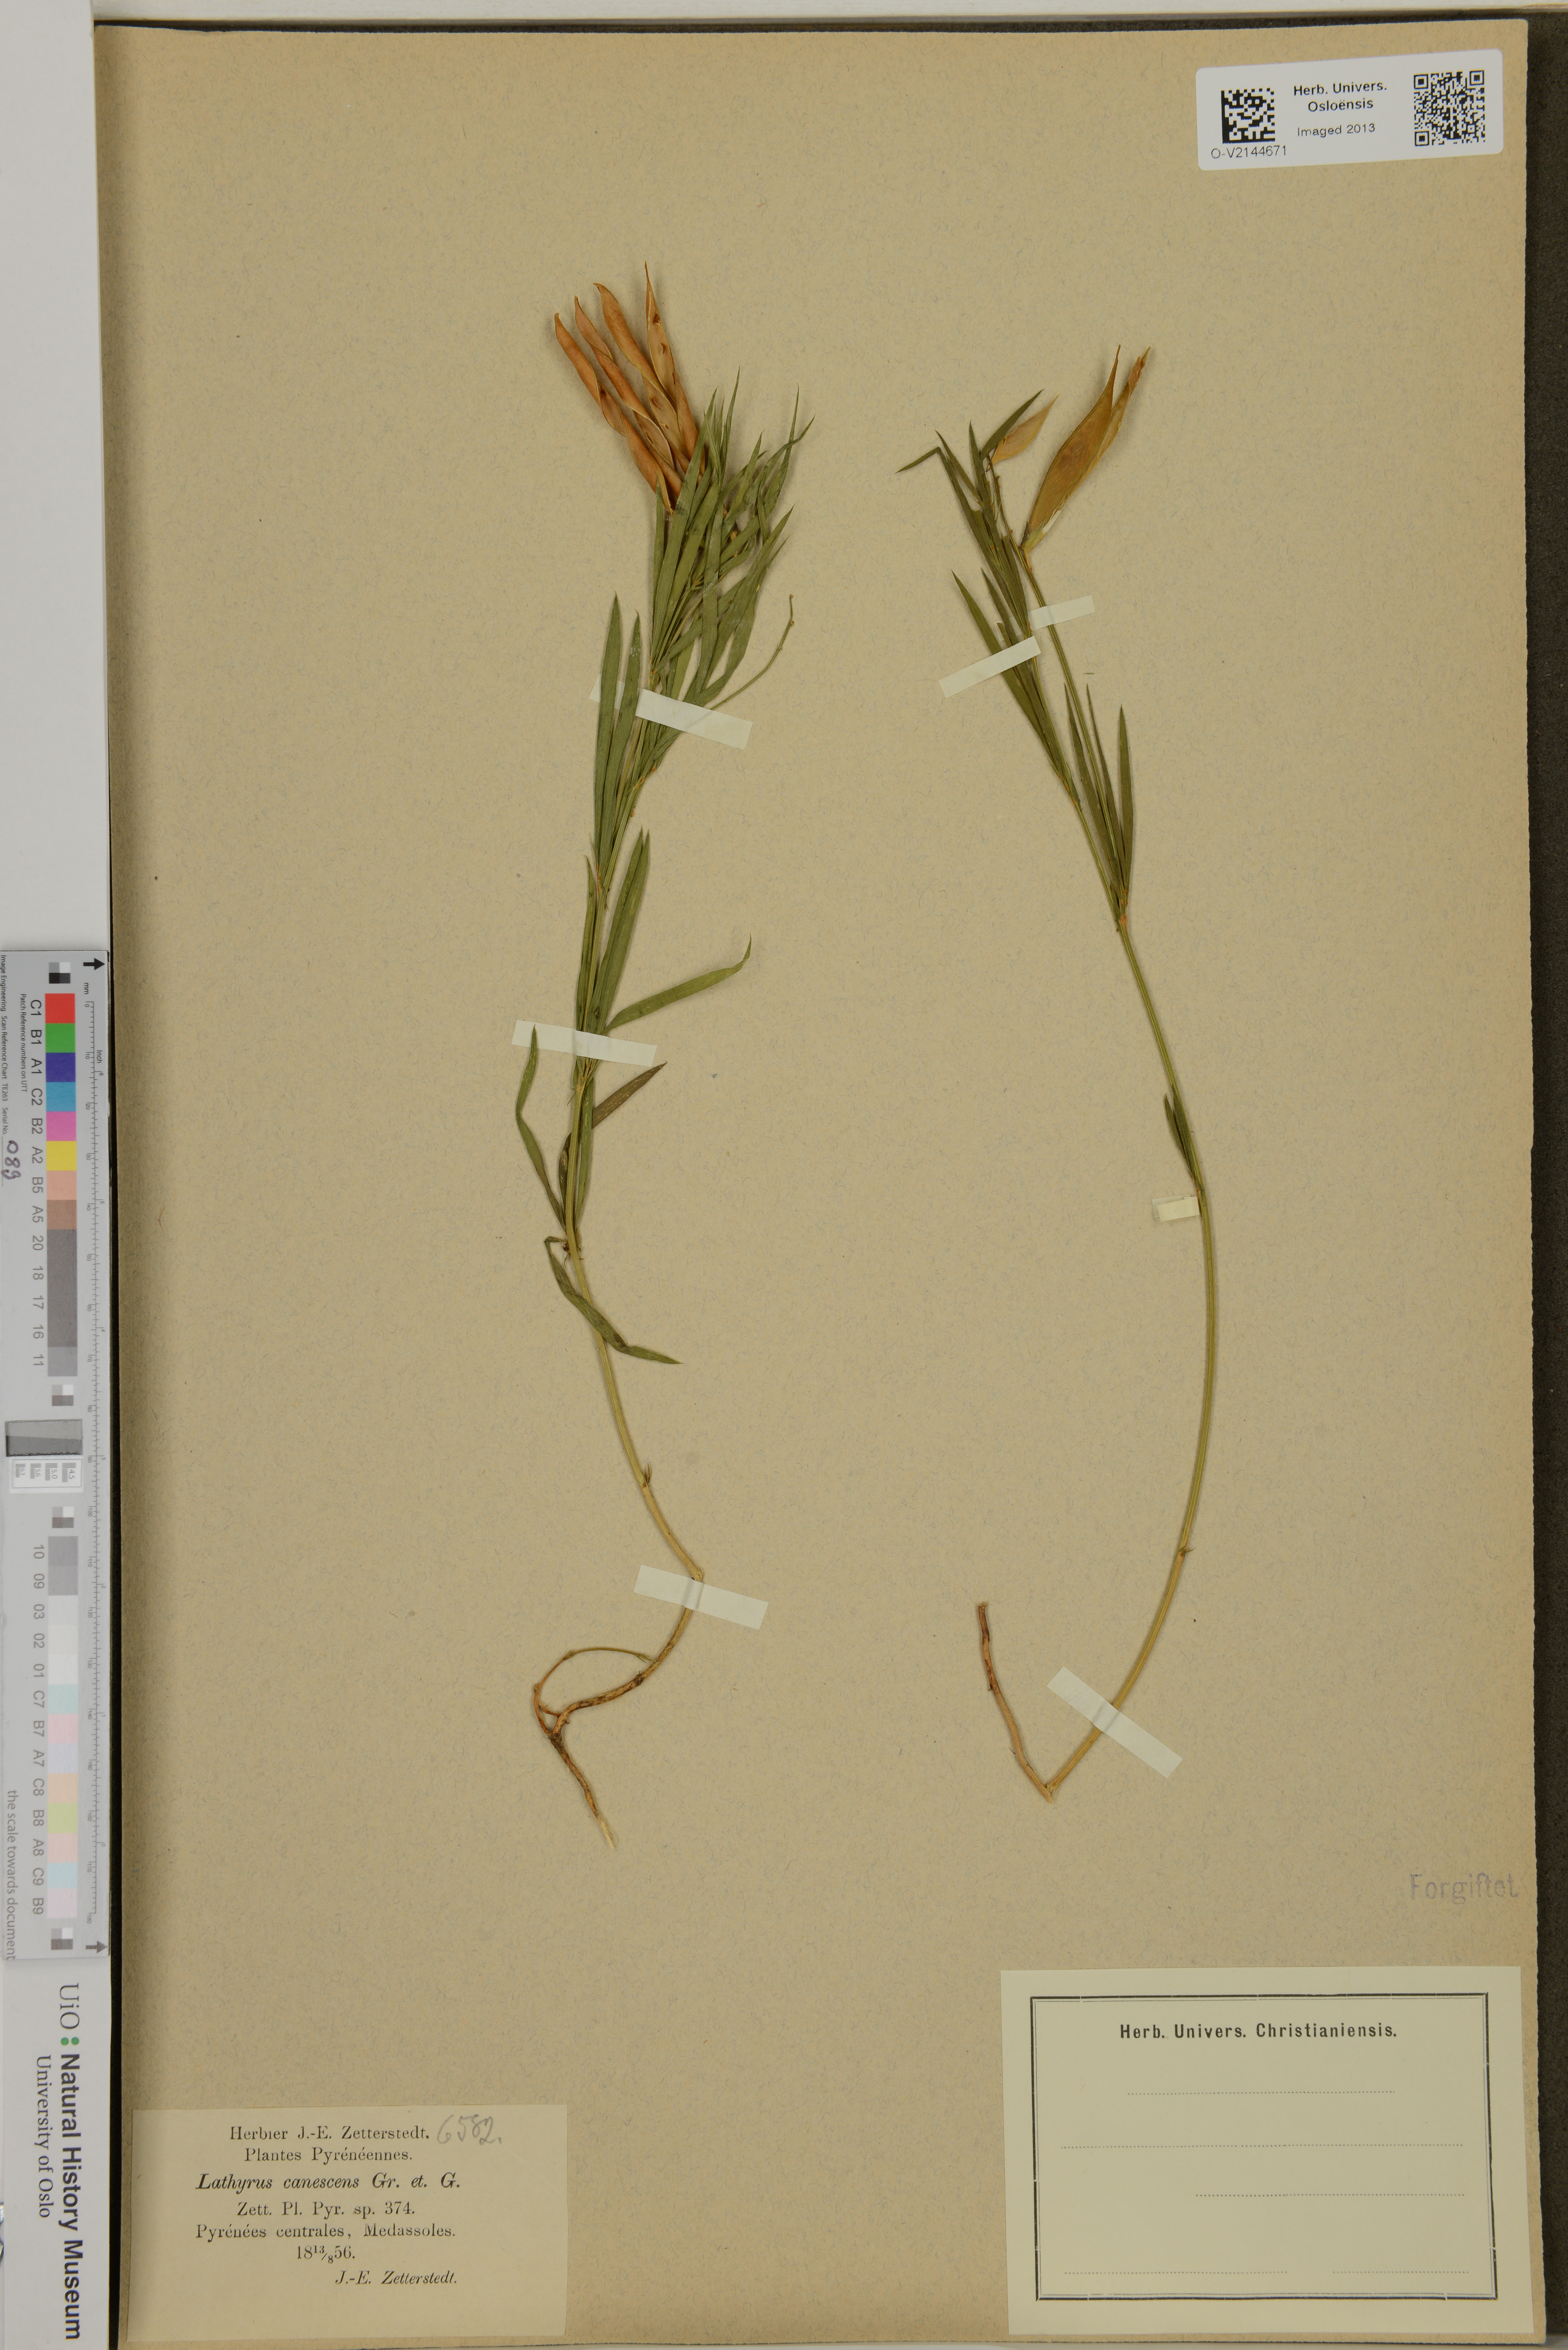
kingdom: Plantae
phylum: Tracheophyta
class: Magnoliopsida
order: Fabales
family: Fabaceae
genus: Lathyrus
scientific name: Lathyrus filiformis
